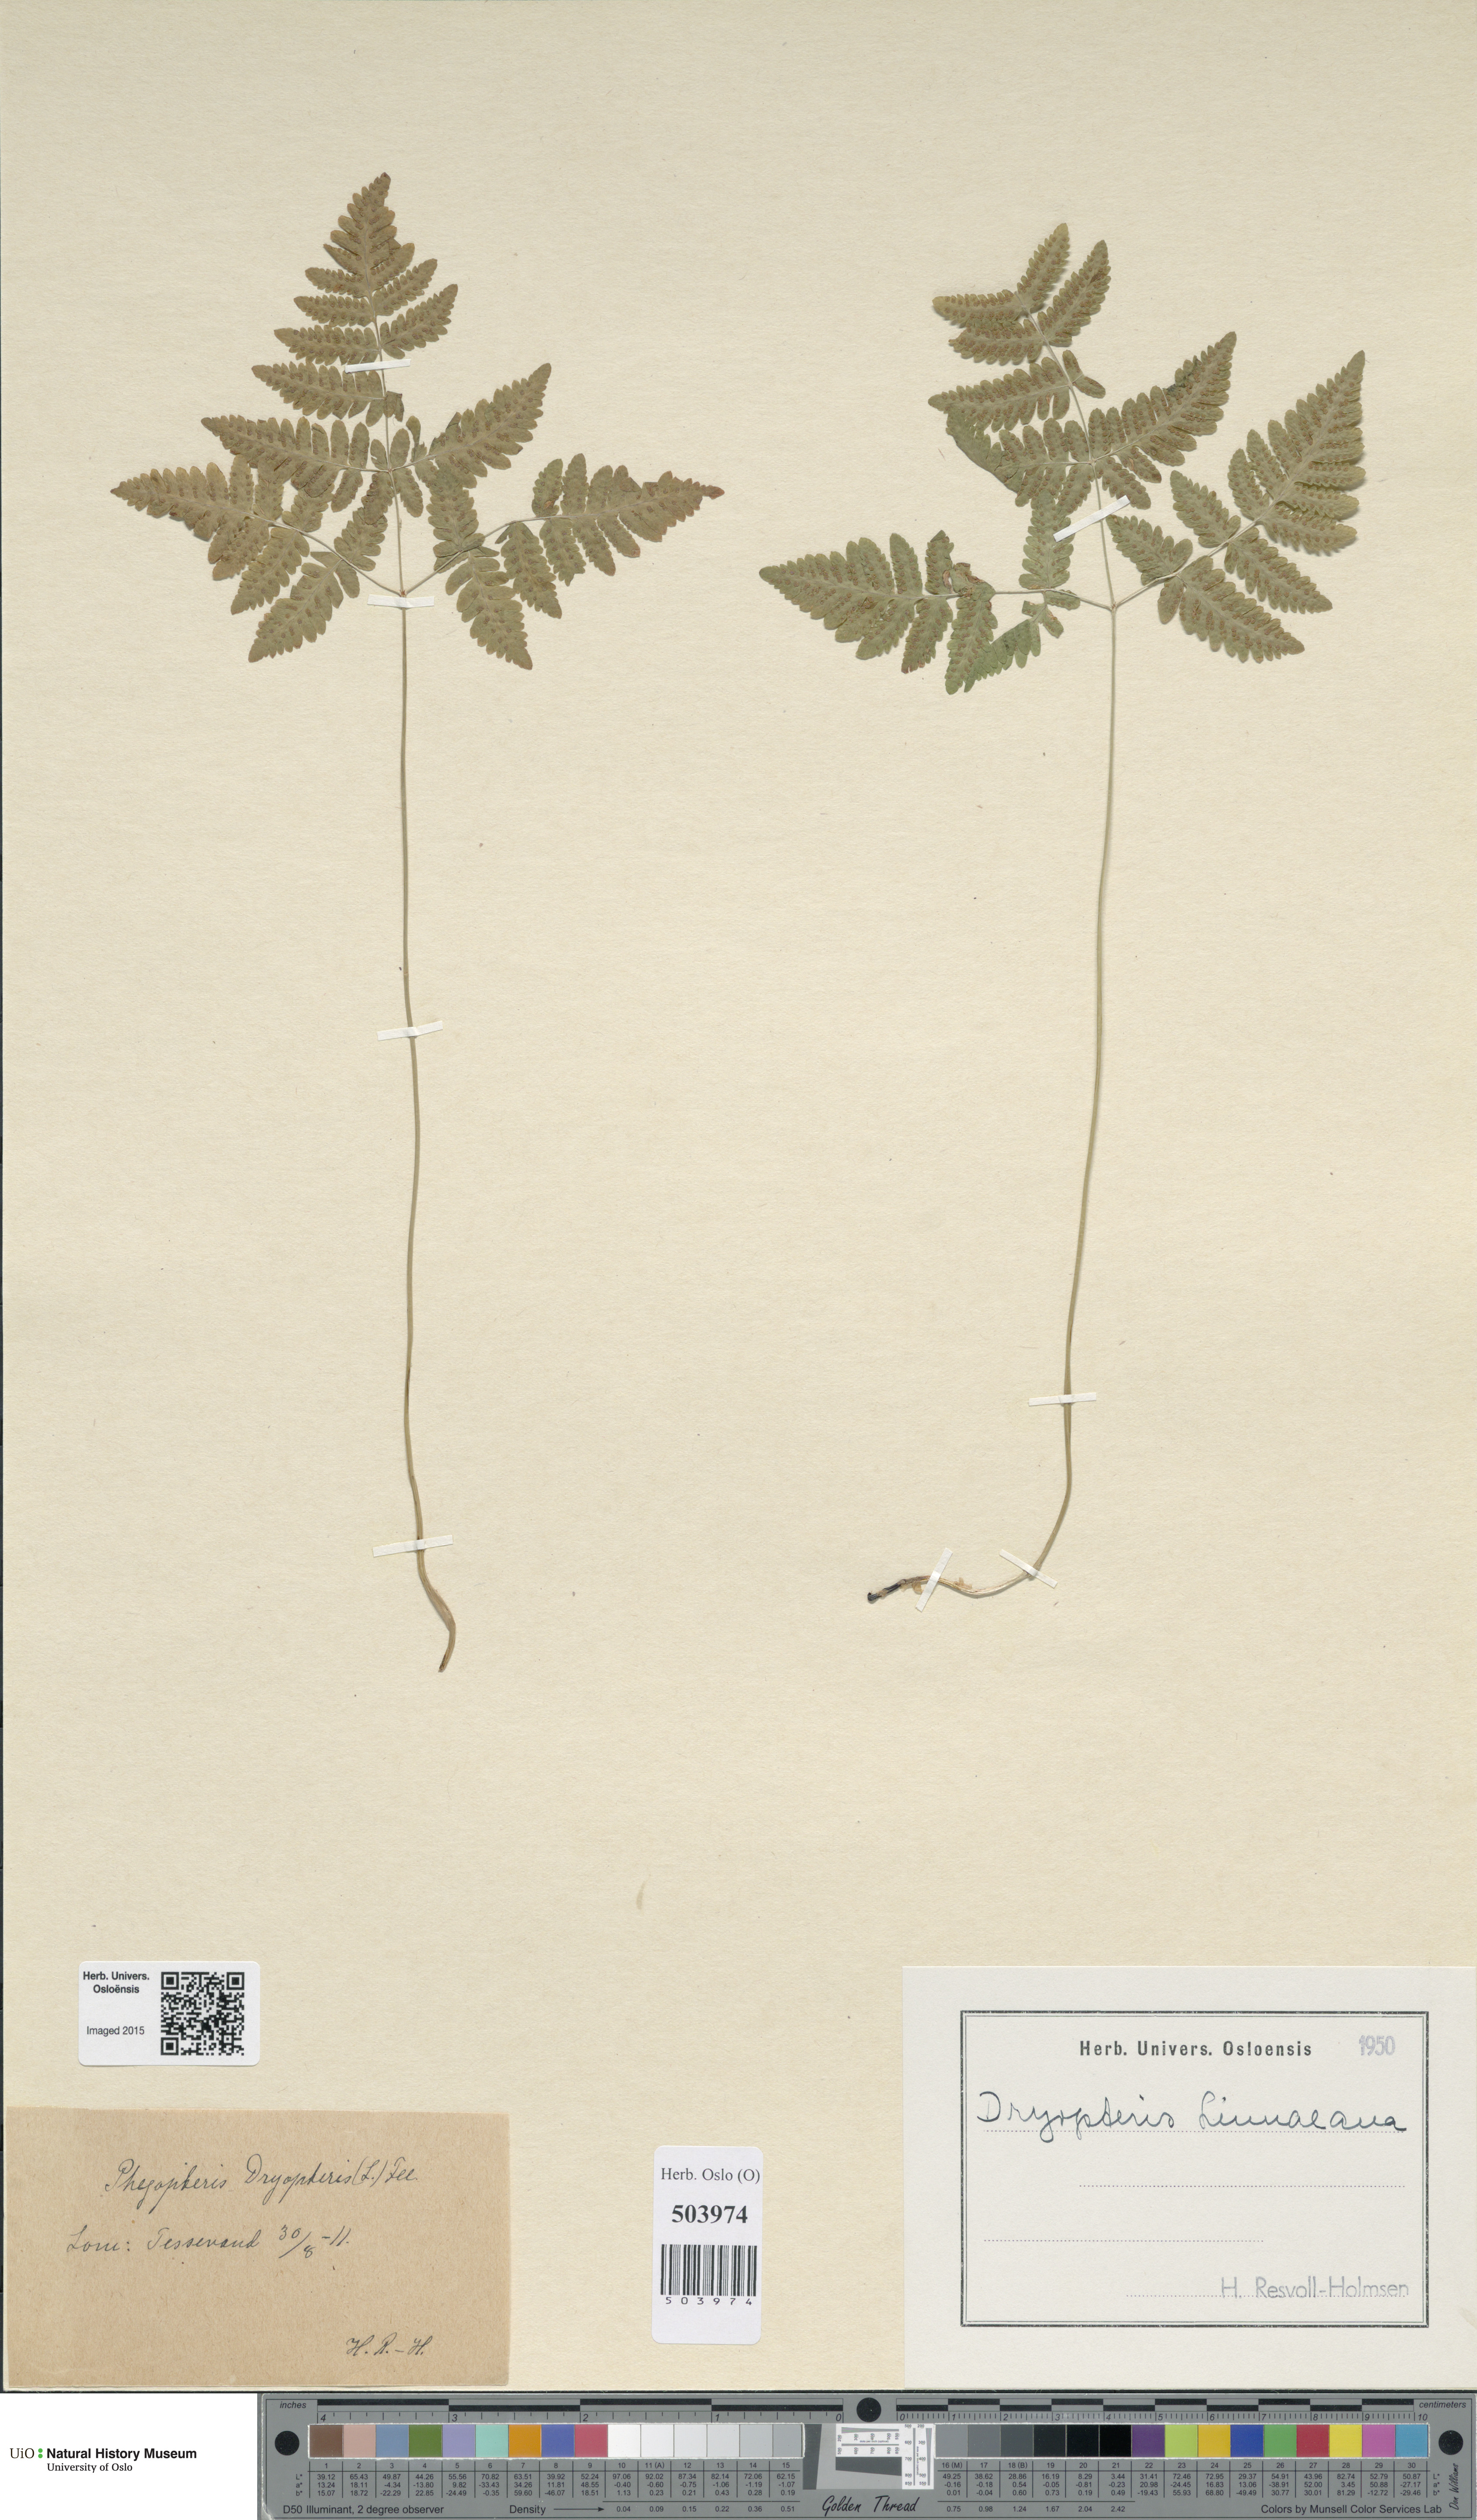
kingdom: Plantae
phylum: Tracheophyta
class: Polypodiopsida
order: Polypodiales
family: Cystopteridaceae
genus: Gymnocarpium
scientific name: Gymnocarpium dryopteris
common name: Oak fern
